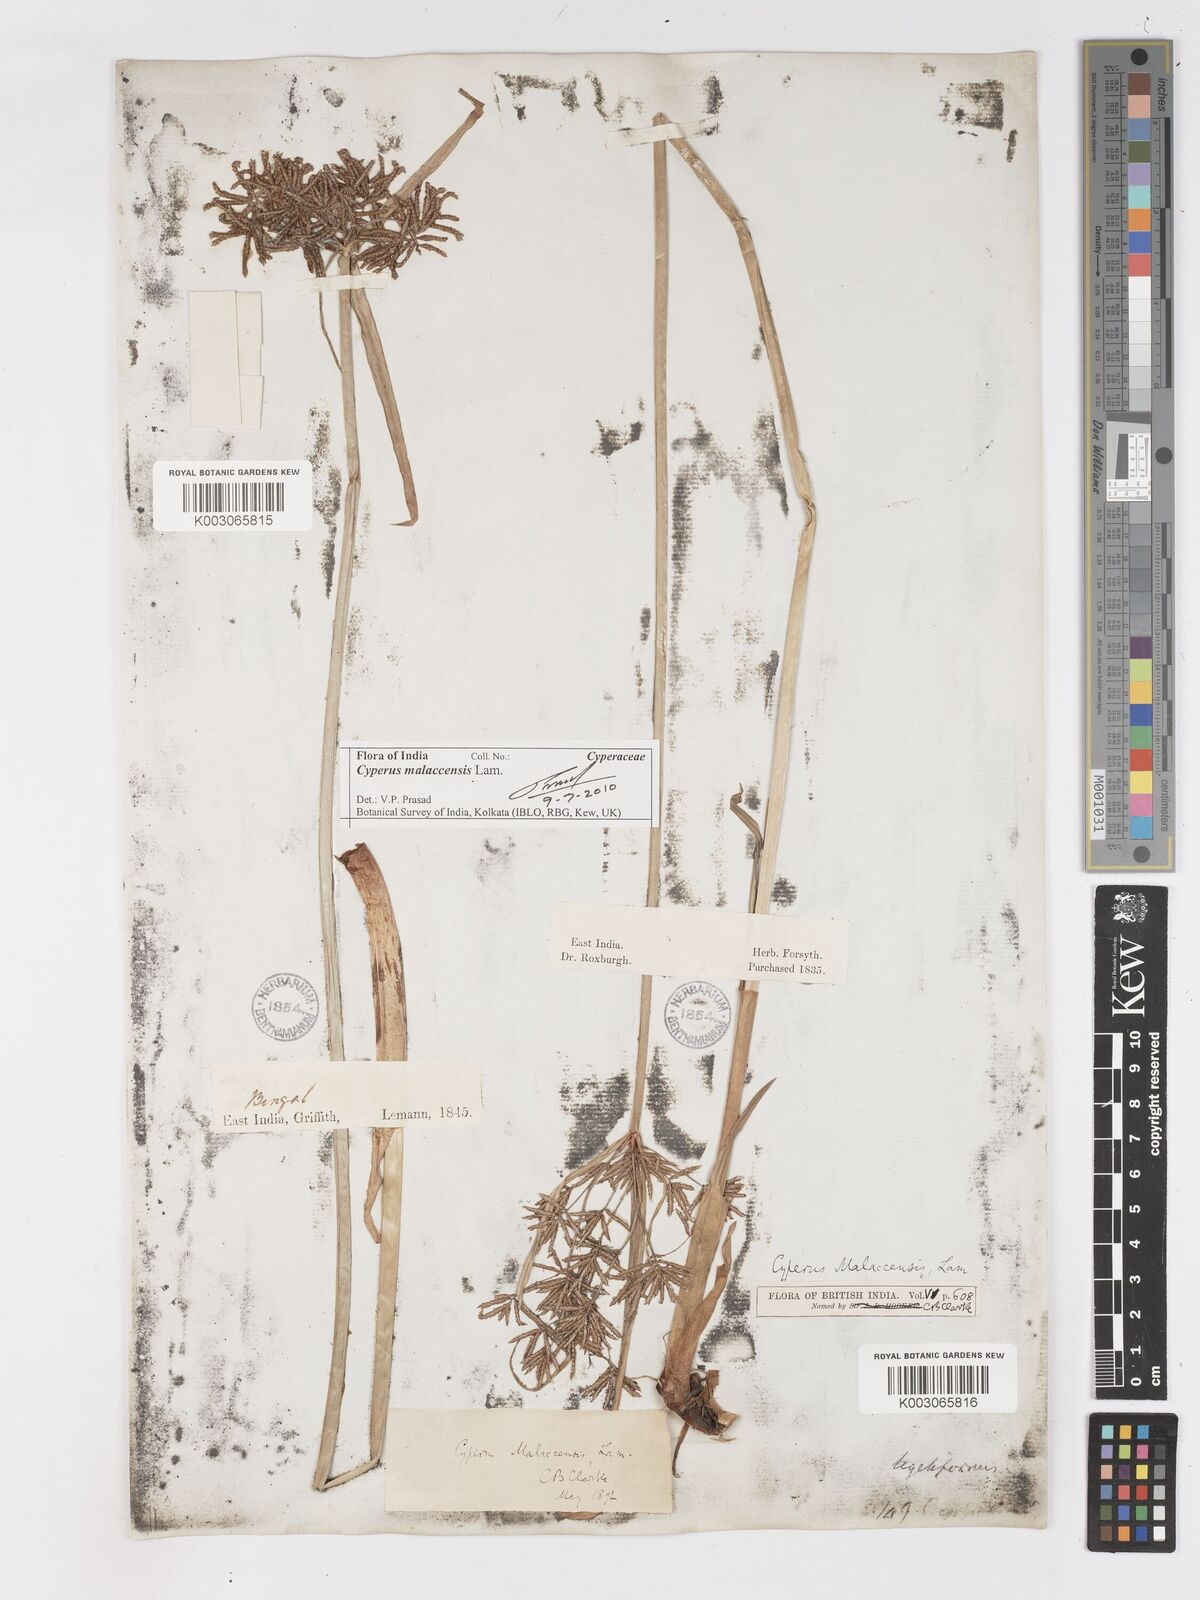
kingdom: Plantae
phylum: Tracheophyta
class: Liliopsida
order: Poales
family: Cyperaceae
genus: Cyperus
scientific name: Cyperus malaccensis
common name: Shichito matgrass
